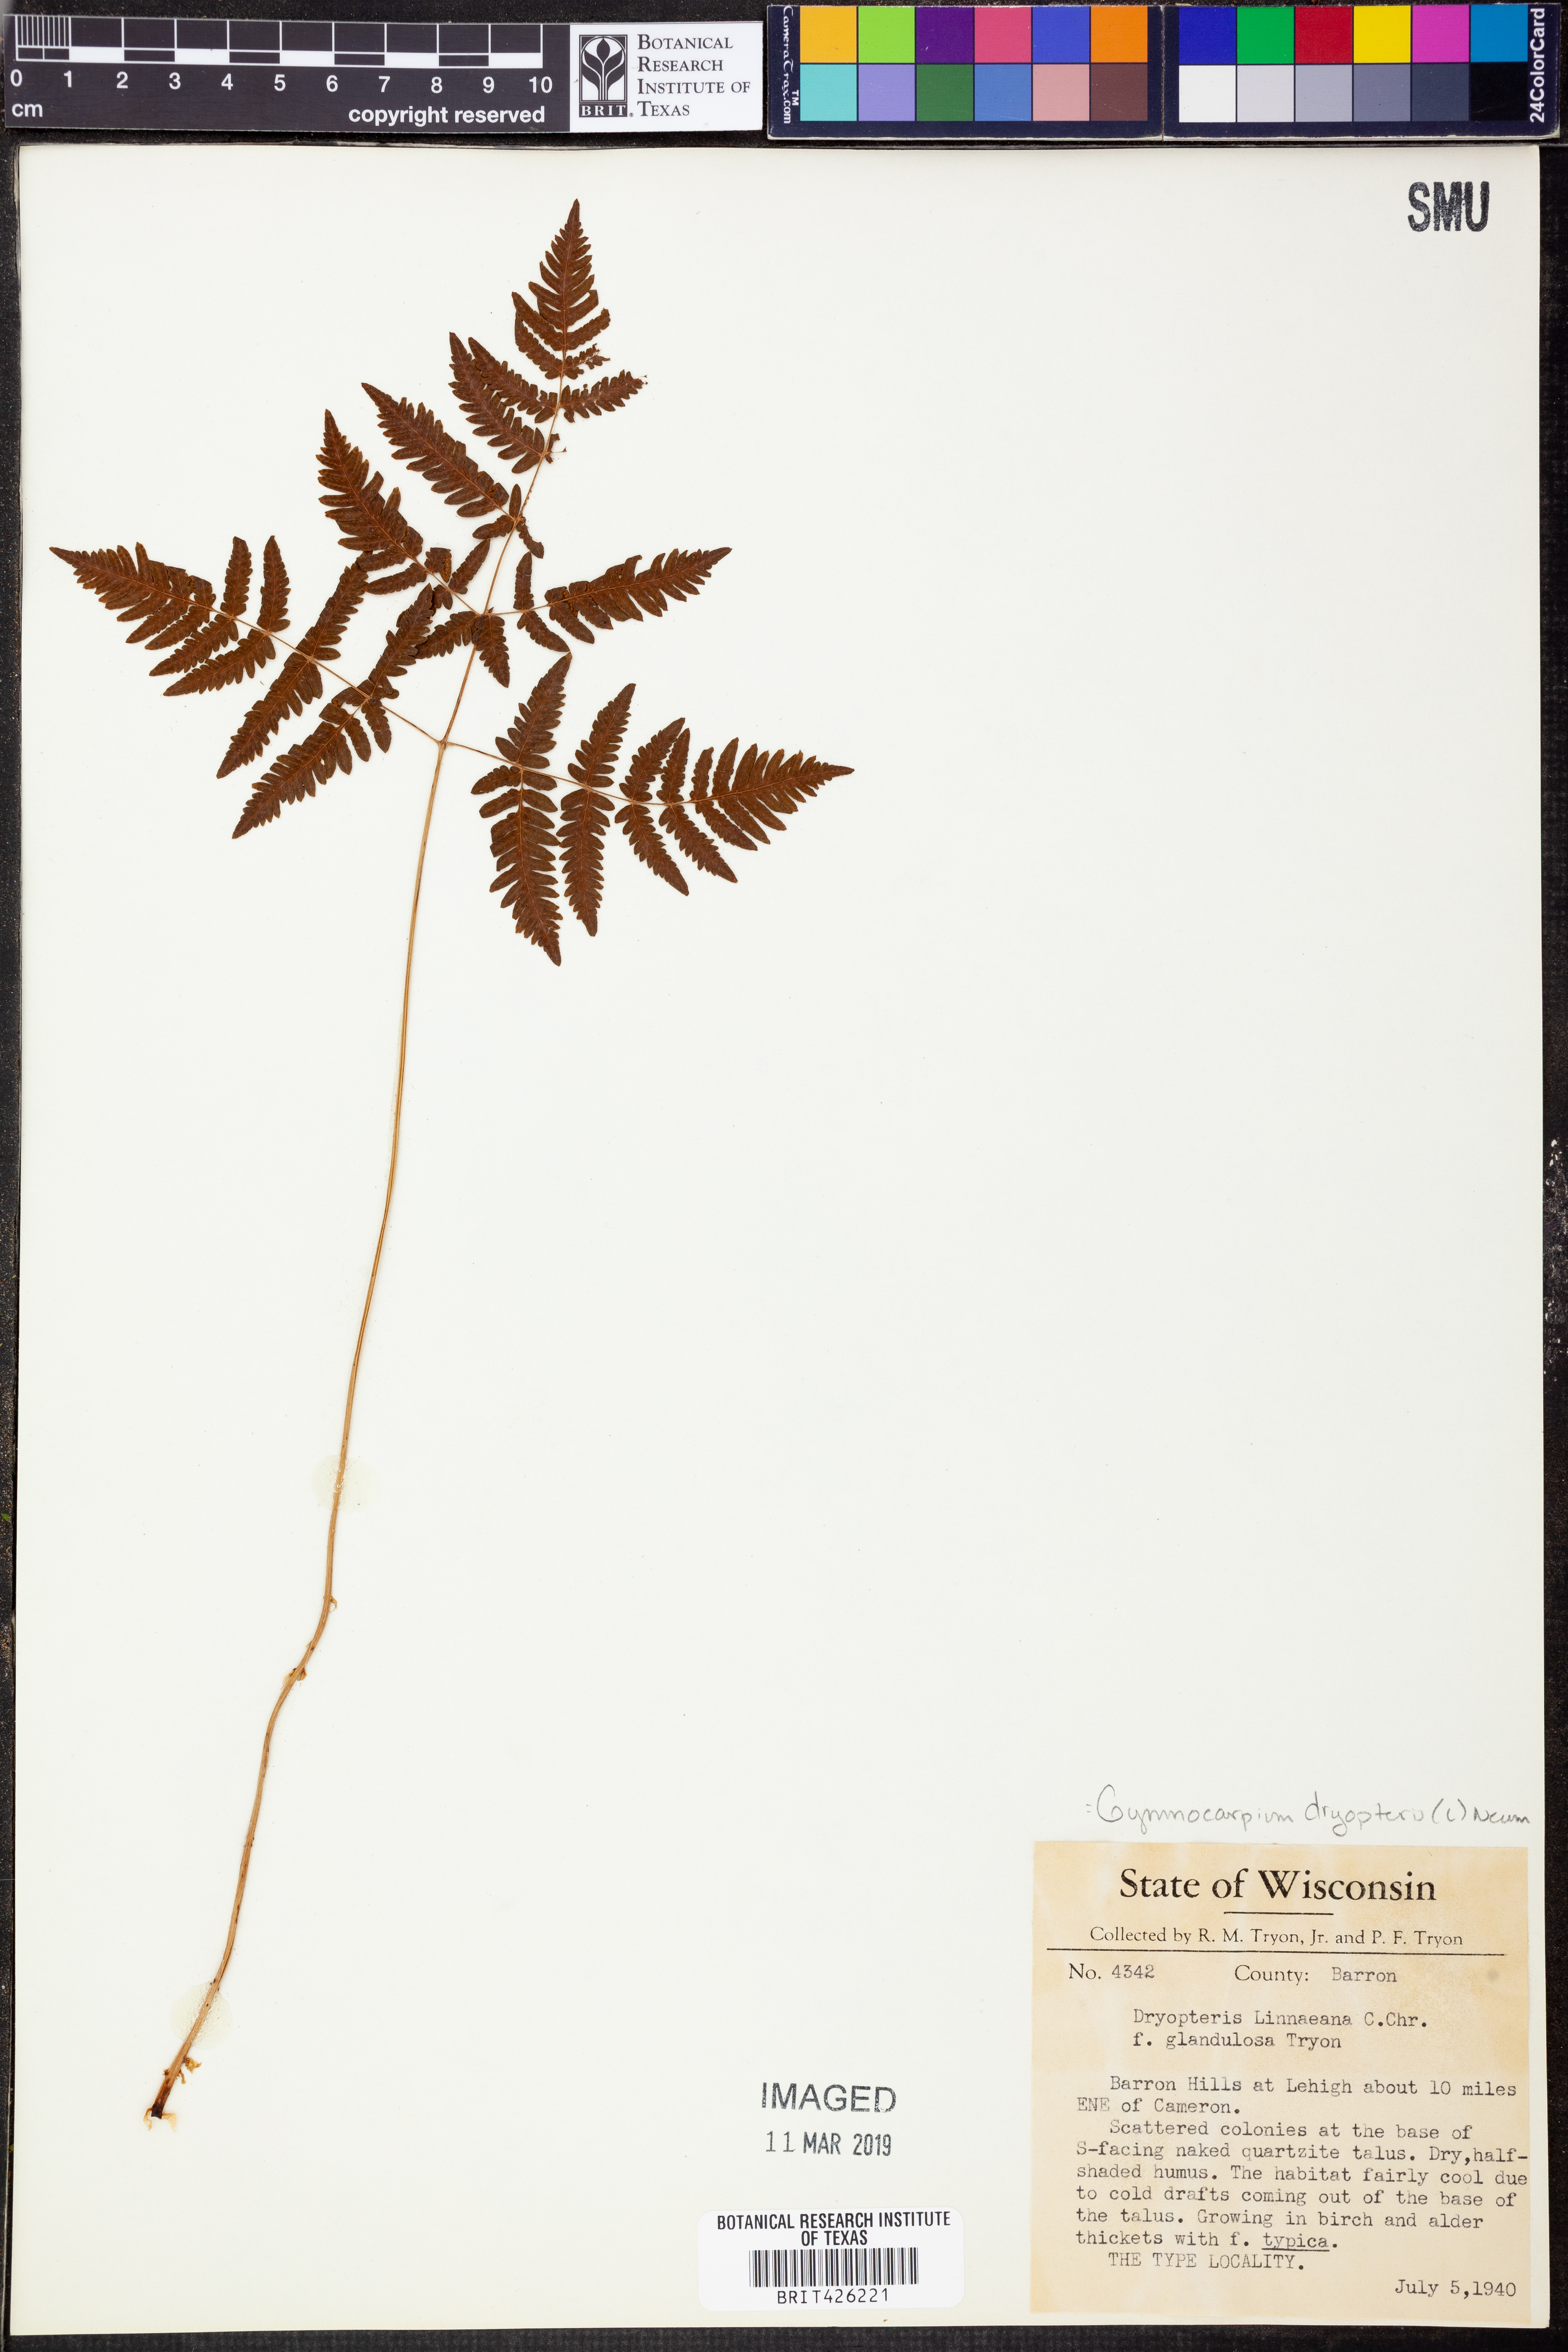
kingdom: Plantae
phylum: Tracheophyta
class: Polypodiopsida
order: Polypodiales
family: Cystopteridaceae
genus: Gymnocarpium
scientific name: Gymnocarpium dryopteris
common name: Oak fern
